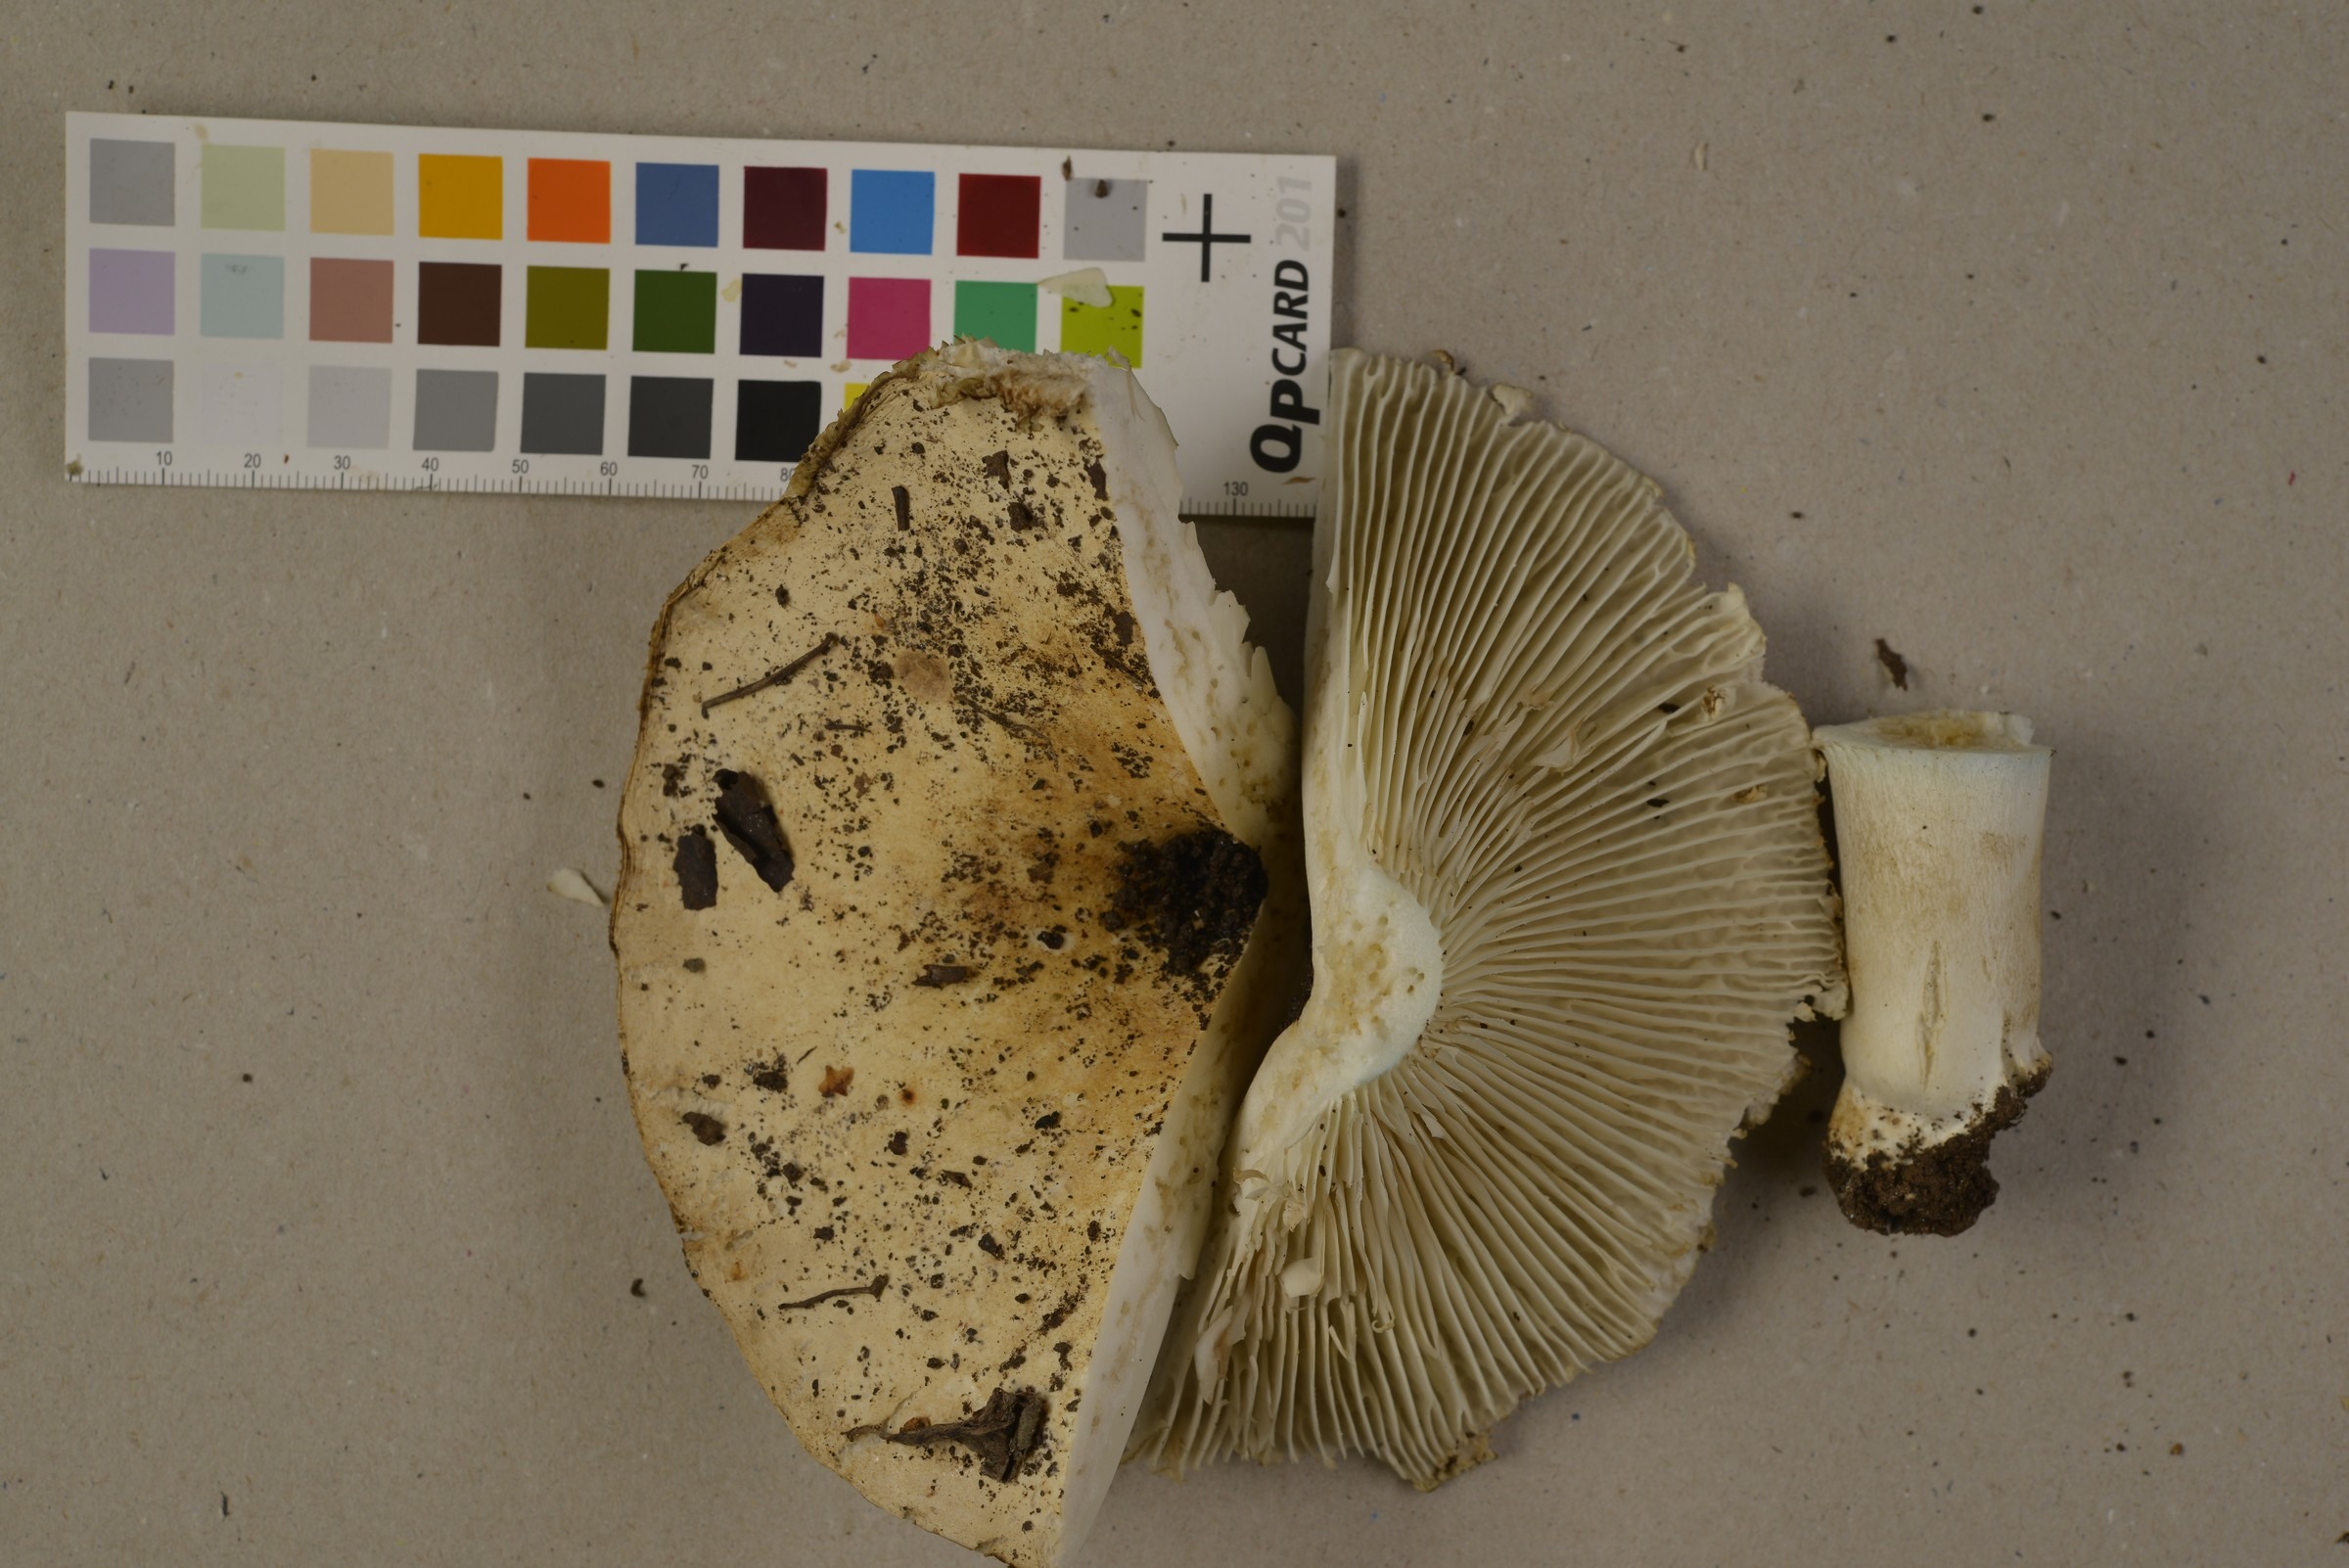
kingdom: Fungi
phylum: Basidiomycota
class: Agaricomycetes
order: Russulales
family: Russulaceae
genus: Russula
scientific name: Russula chloroides
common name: Blue band brittlegill
